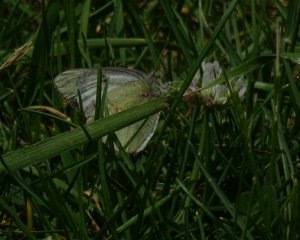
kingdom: Animalia
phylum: Arthropoda
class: Insecta
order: Lepidoptera
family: Pieridae
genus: Colias
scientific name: Colias philodice
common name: Clouded Sulphur
